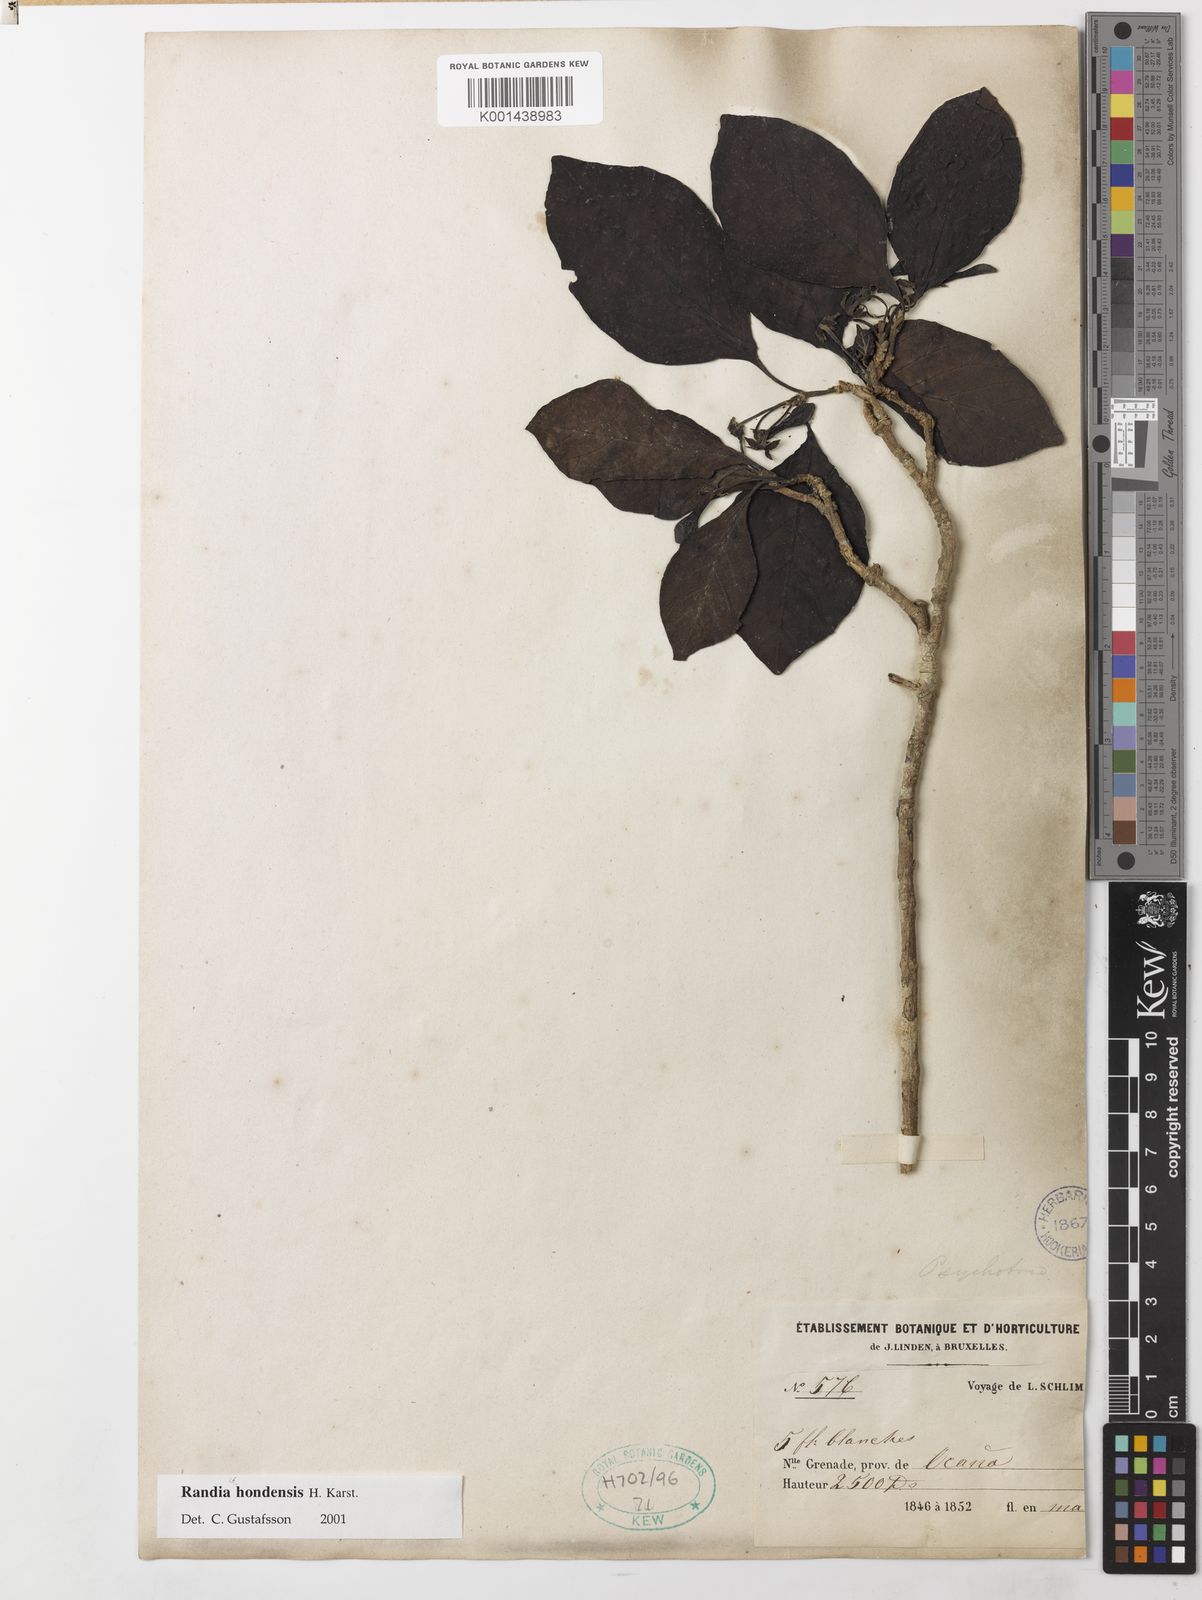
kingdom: Plantae
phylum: Tracheophyta
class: Magnoliopsida
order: Gentianales
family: Rubiaceae
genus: Randia
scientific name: Randia hondensis
